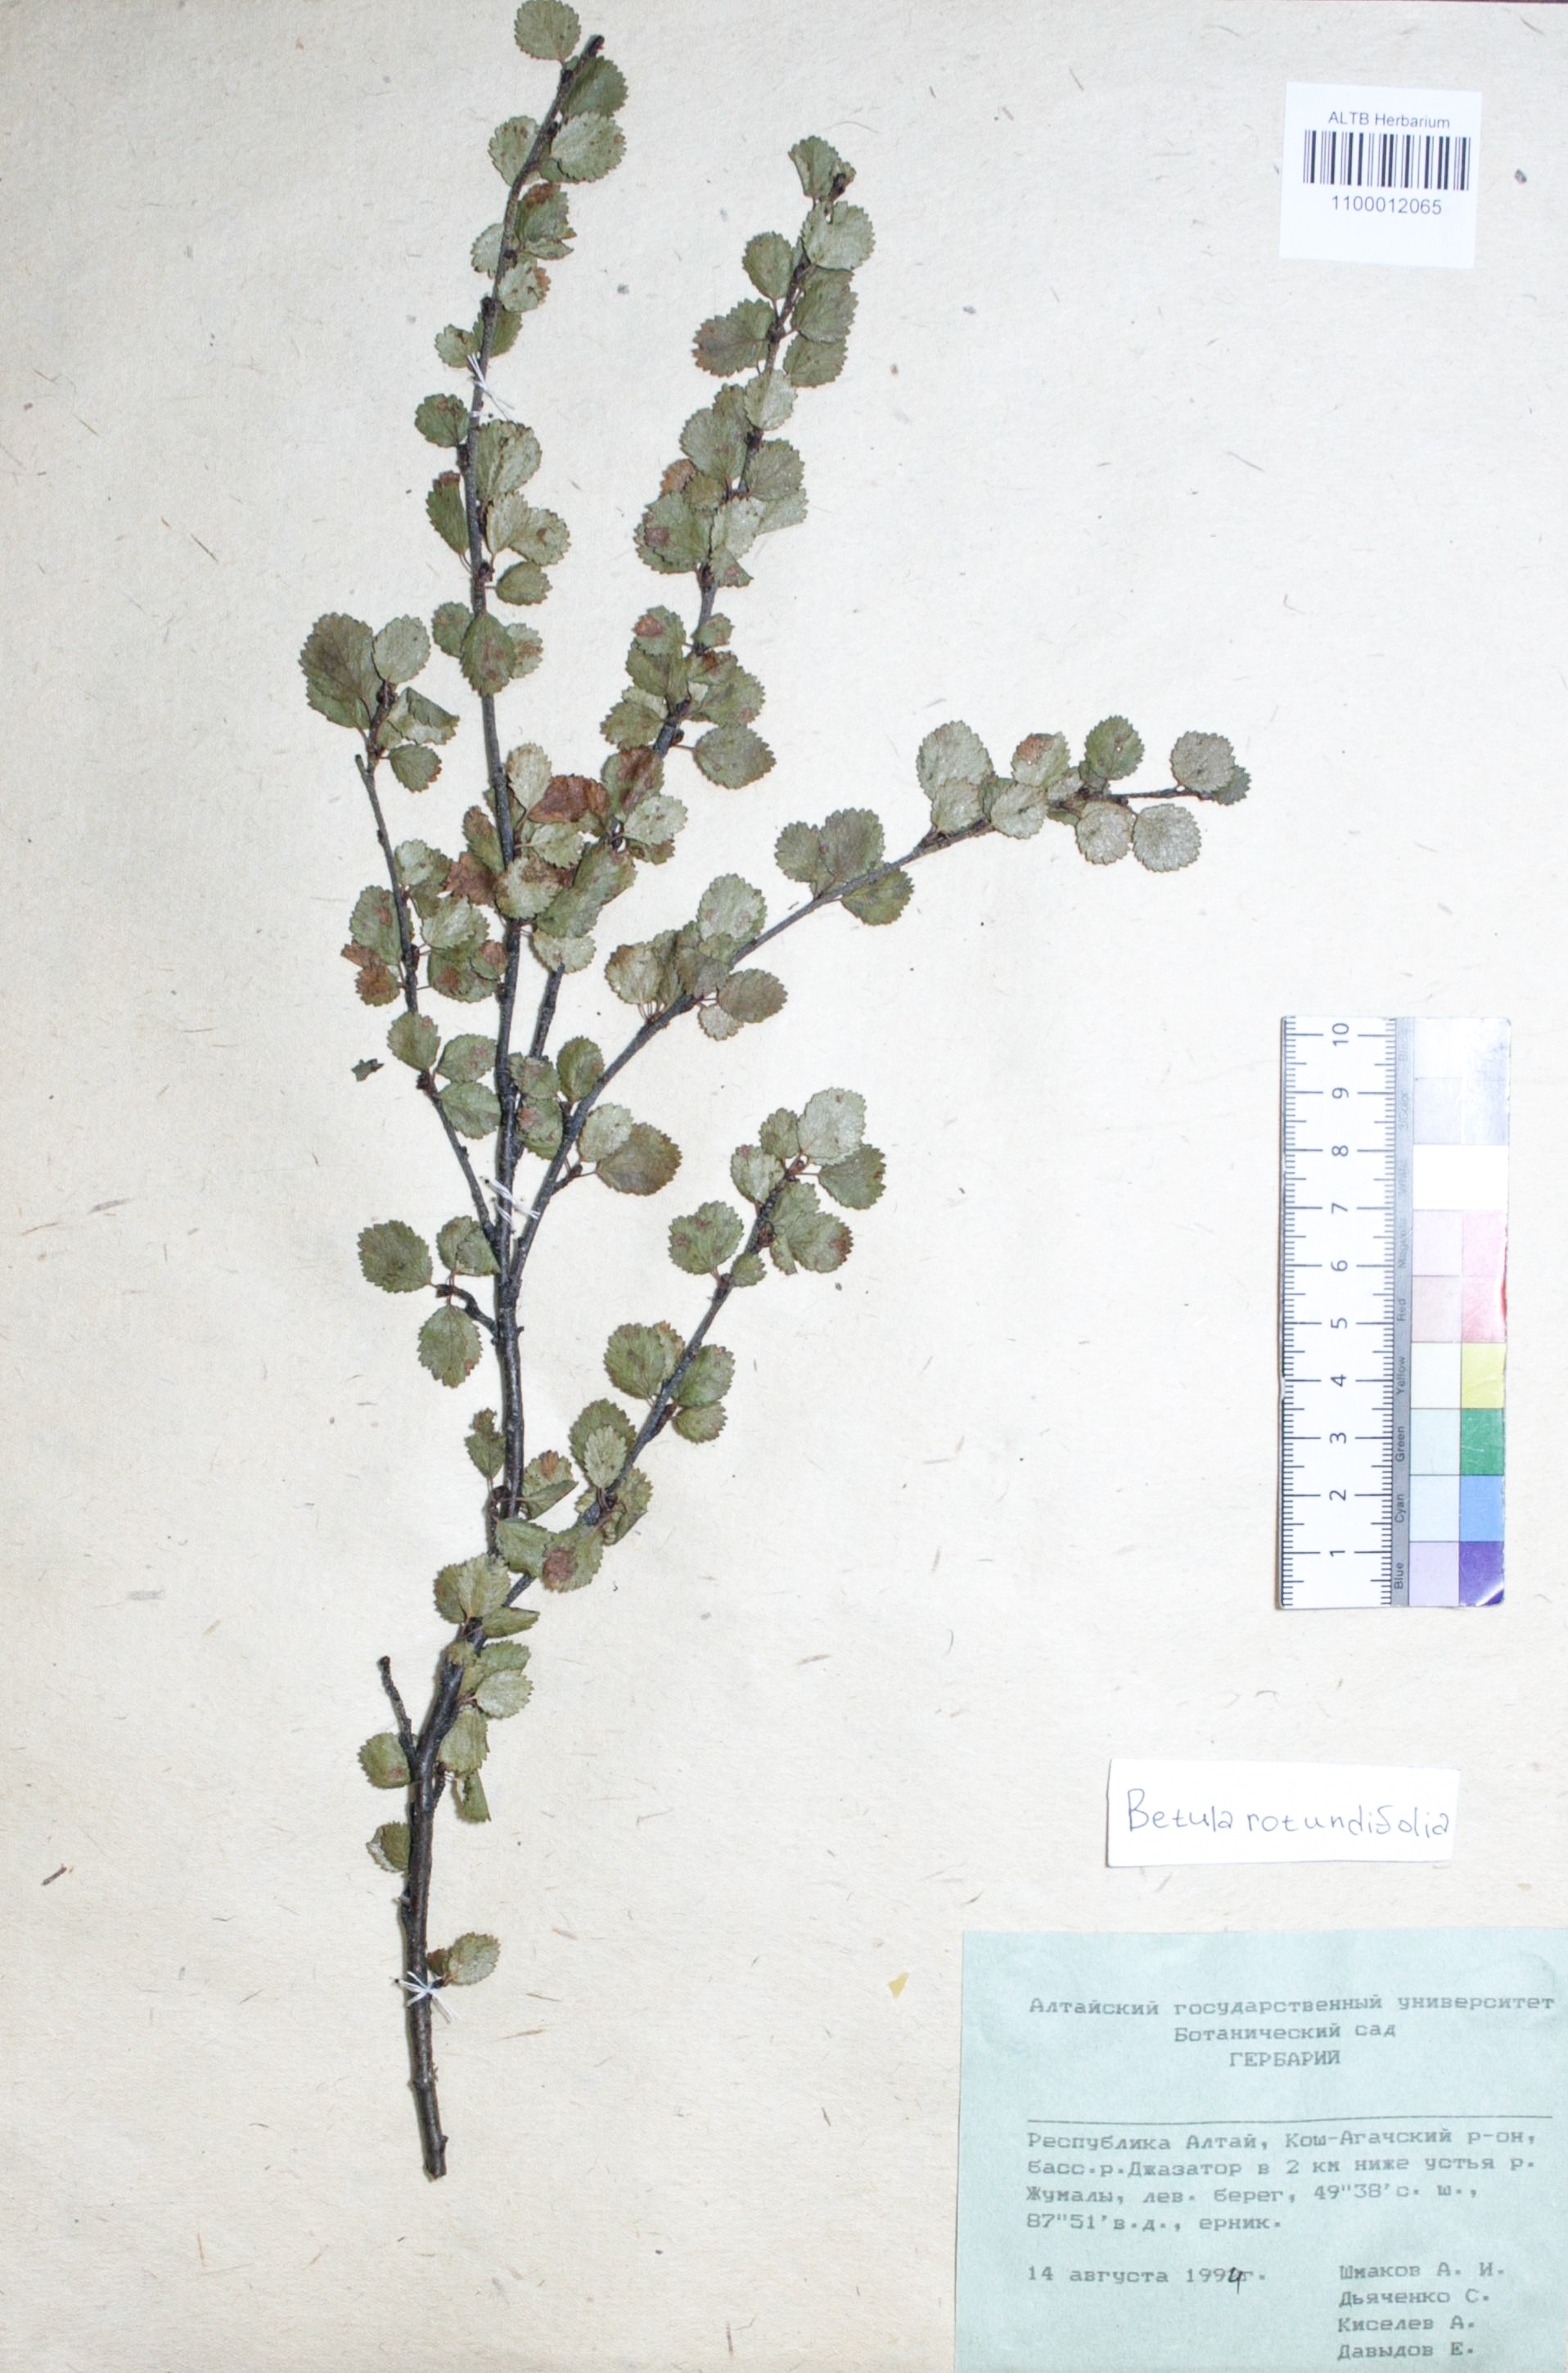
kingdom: Plantae
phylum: Tracheophyta
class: Magnoliopsida
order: Fagales
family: Betulaceae
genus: Betula
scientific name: Betula glandulosa
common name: Dwarf birch
